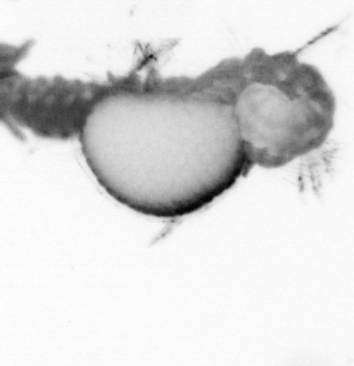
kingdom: Animalia
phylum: Annelida
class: Polychaeta
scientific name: Polychaeta
